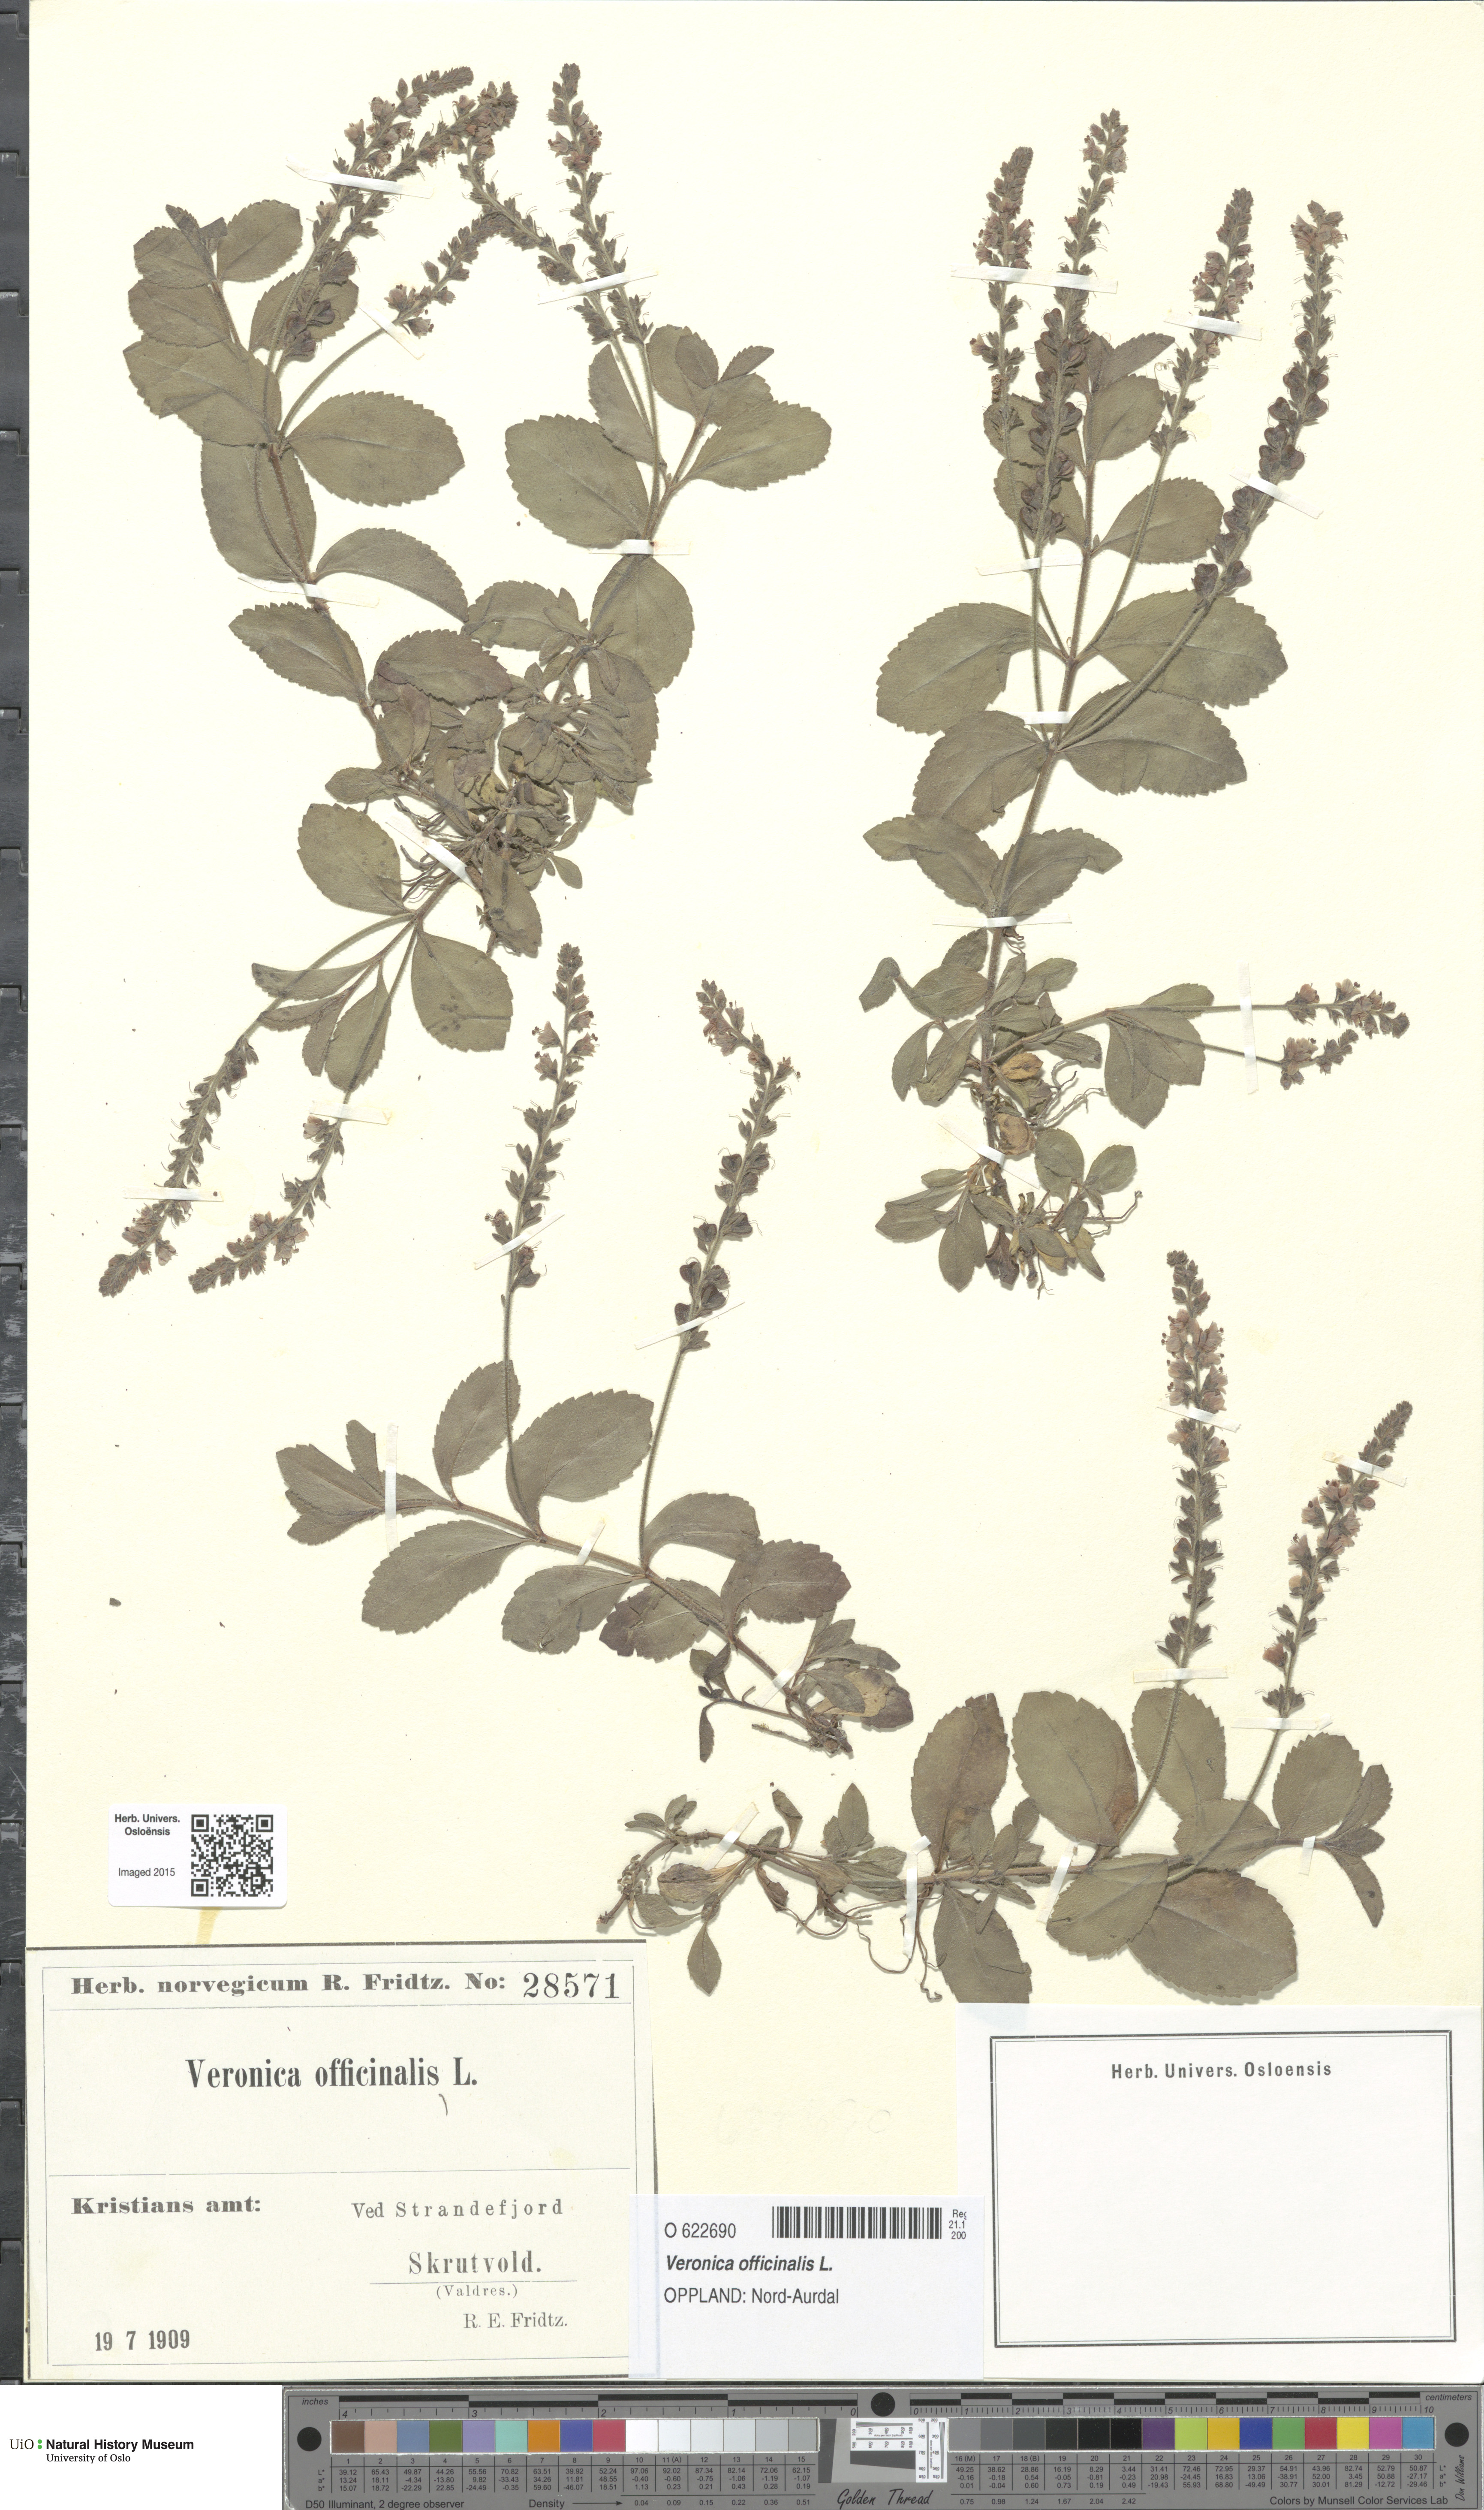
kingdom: Plantae
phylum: Tracheophyta
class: Magnoliopsida
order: Lamiales
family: Plantaginaceae
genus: Veronica
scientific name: Veronica officinalis
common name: Common speedwell
